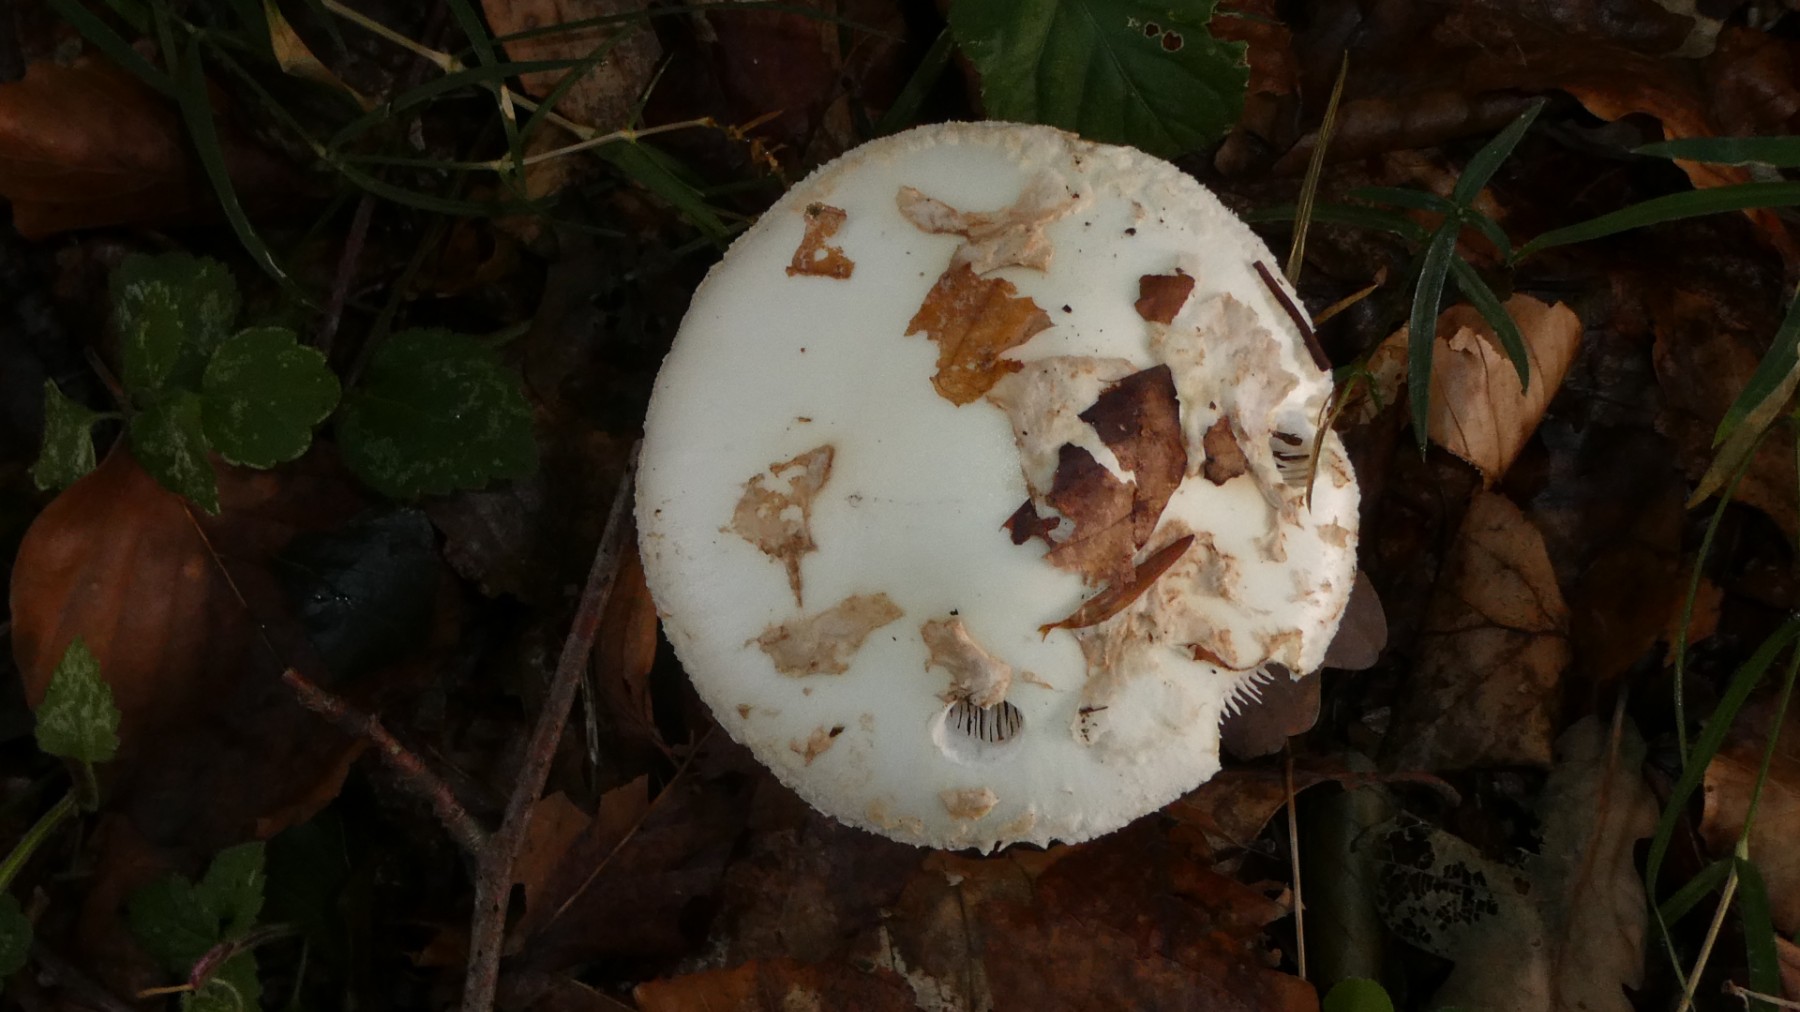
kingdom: Fungi
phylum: Basidiomycota
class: Agaricomycetes
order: Agaricales
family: Amanitaceae
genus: Amanita
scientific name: Amanita citrina
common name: kugleknoldet fluesvamp
